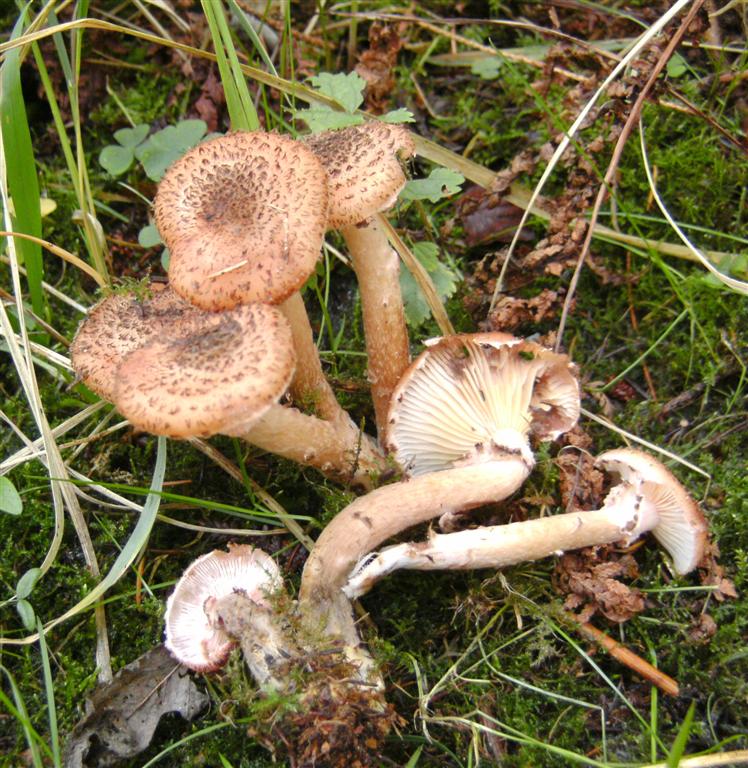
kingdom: Fungi
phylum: Basidiomycota
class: Agaricomycetes
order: Agaricales
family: Physalacriaceae
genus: Armillaria
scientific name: Armillaria ostoyae
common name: mørk honningsvamp
